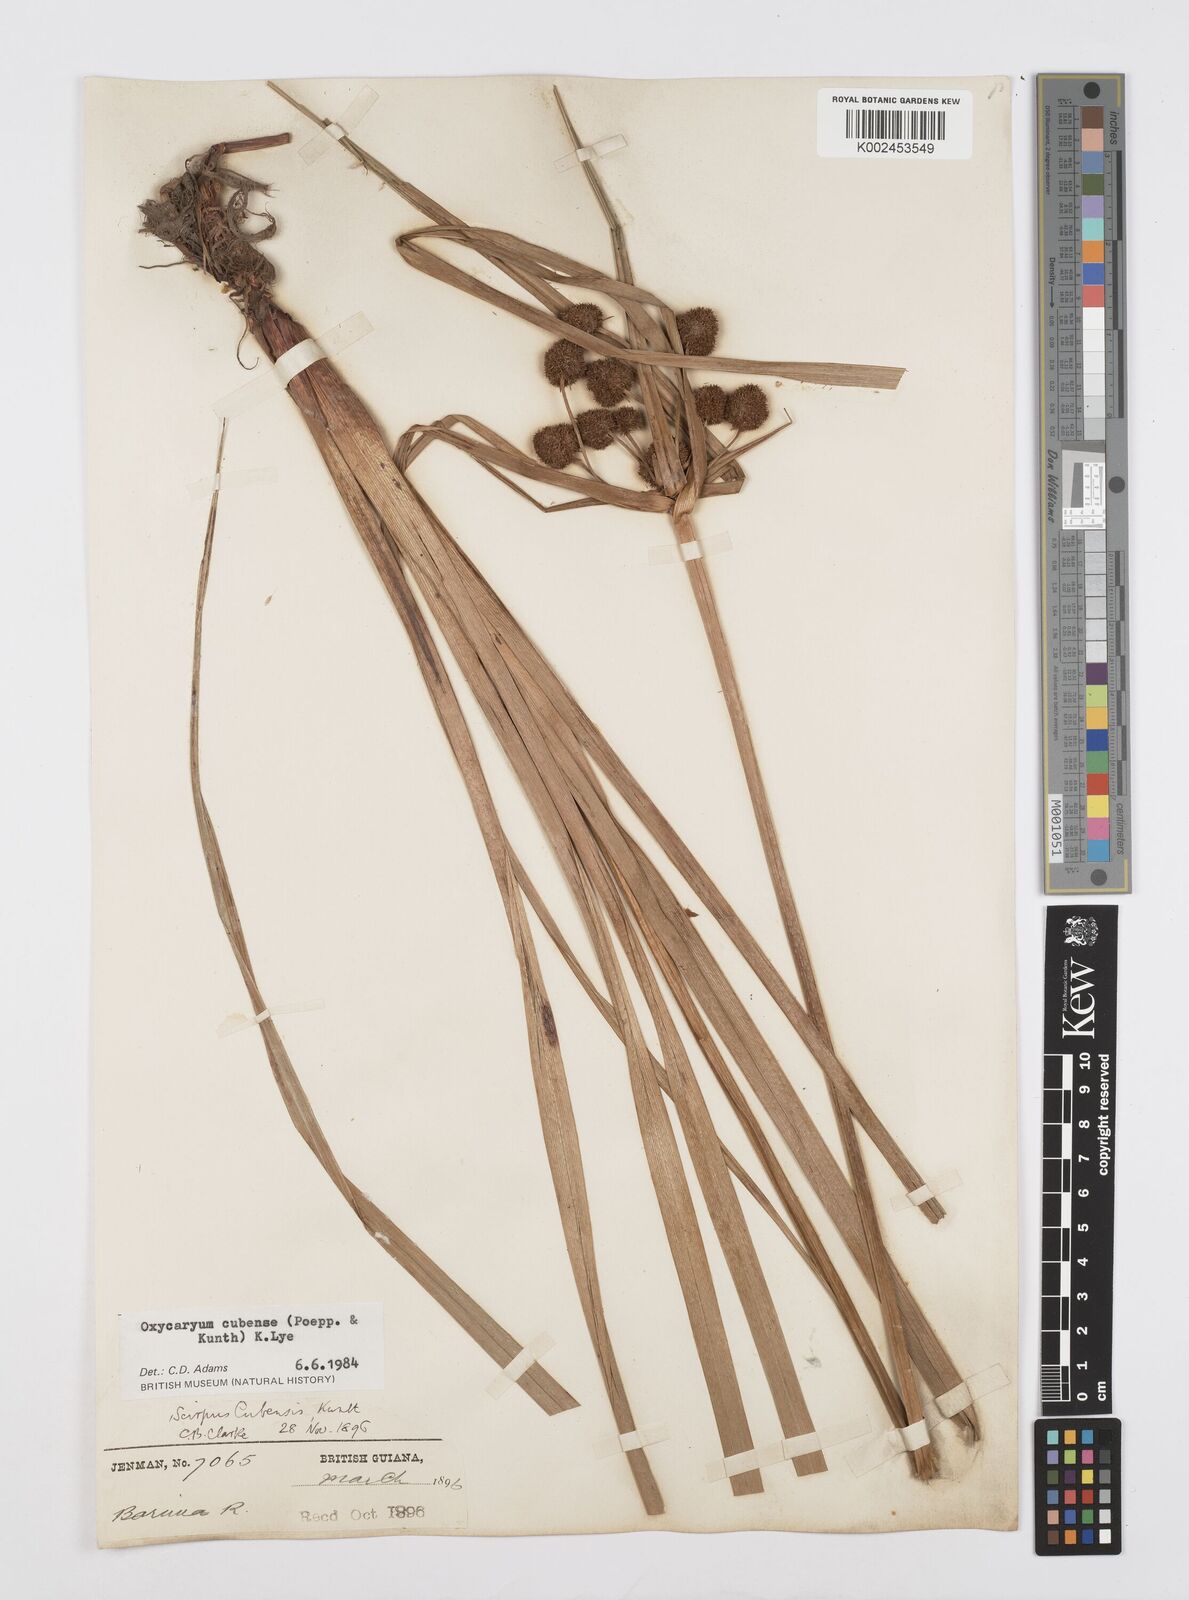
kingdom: Plantae
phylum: Tracheophyta
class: Liliopsida
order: Poales
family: Cyperaceae
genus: Cyperus
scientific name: Cyperus elegans
